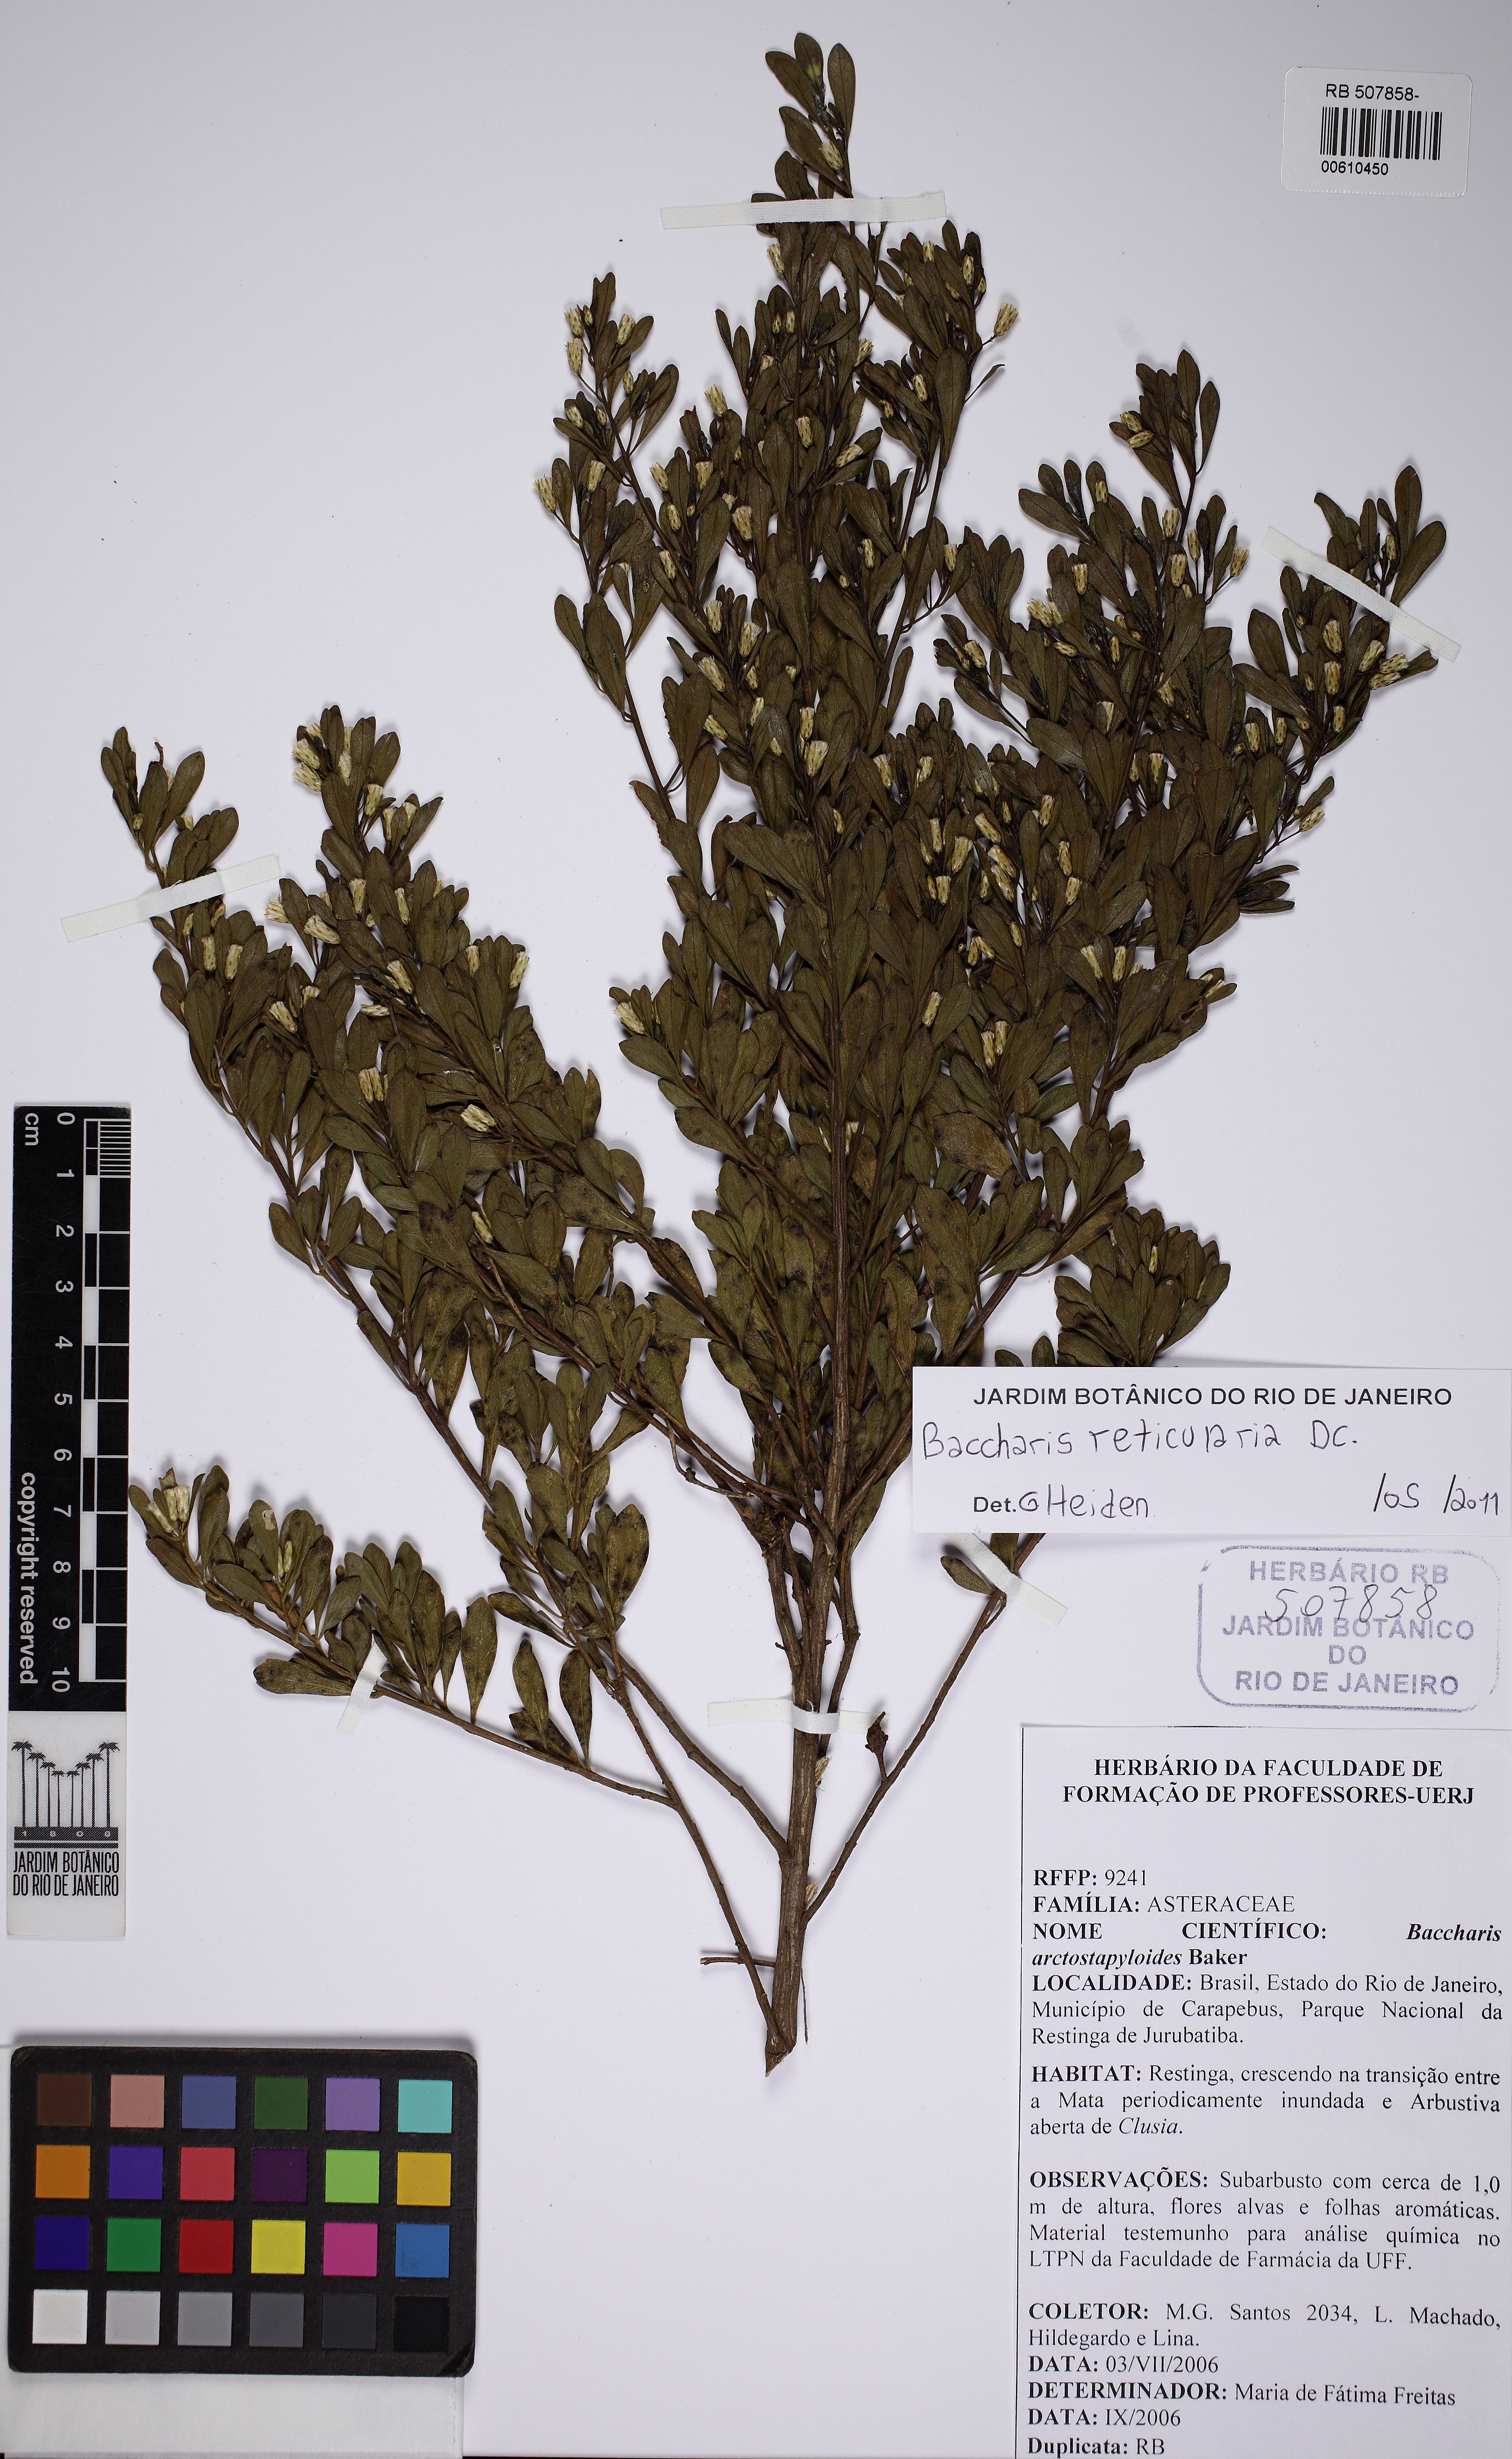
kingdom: Plantae
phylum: Tracheophyta
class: Magnoliopsida
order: Asterales
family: Asteraceae
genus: Baccharis
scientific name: Baccharis reticularia
